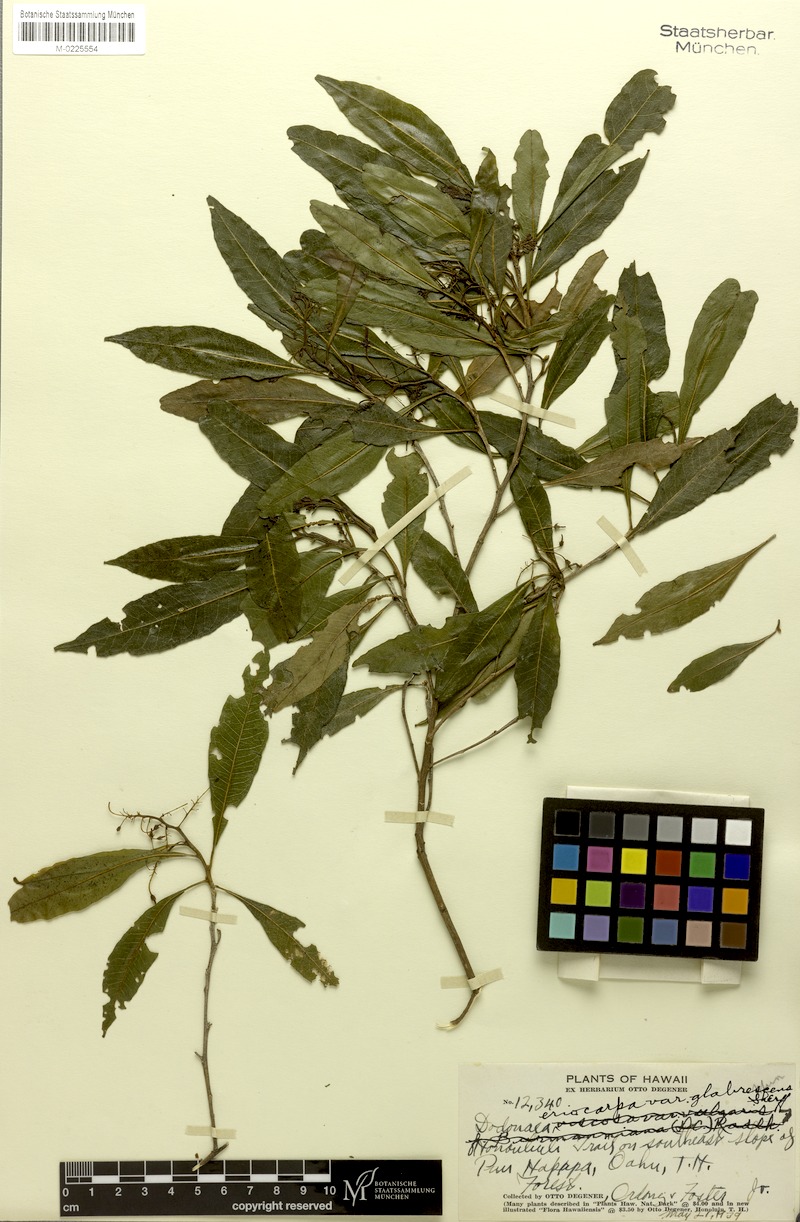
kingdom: Plantae
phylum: Tracheophyta
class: Magnoliopsida
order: Sapindales
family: Sapindaceae
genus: Dodonaea
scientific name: Dodonaea viscosa
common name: Hopbush
